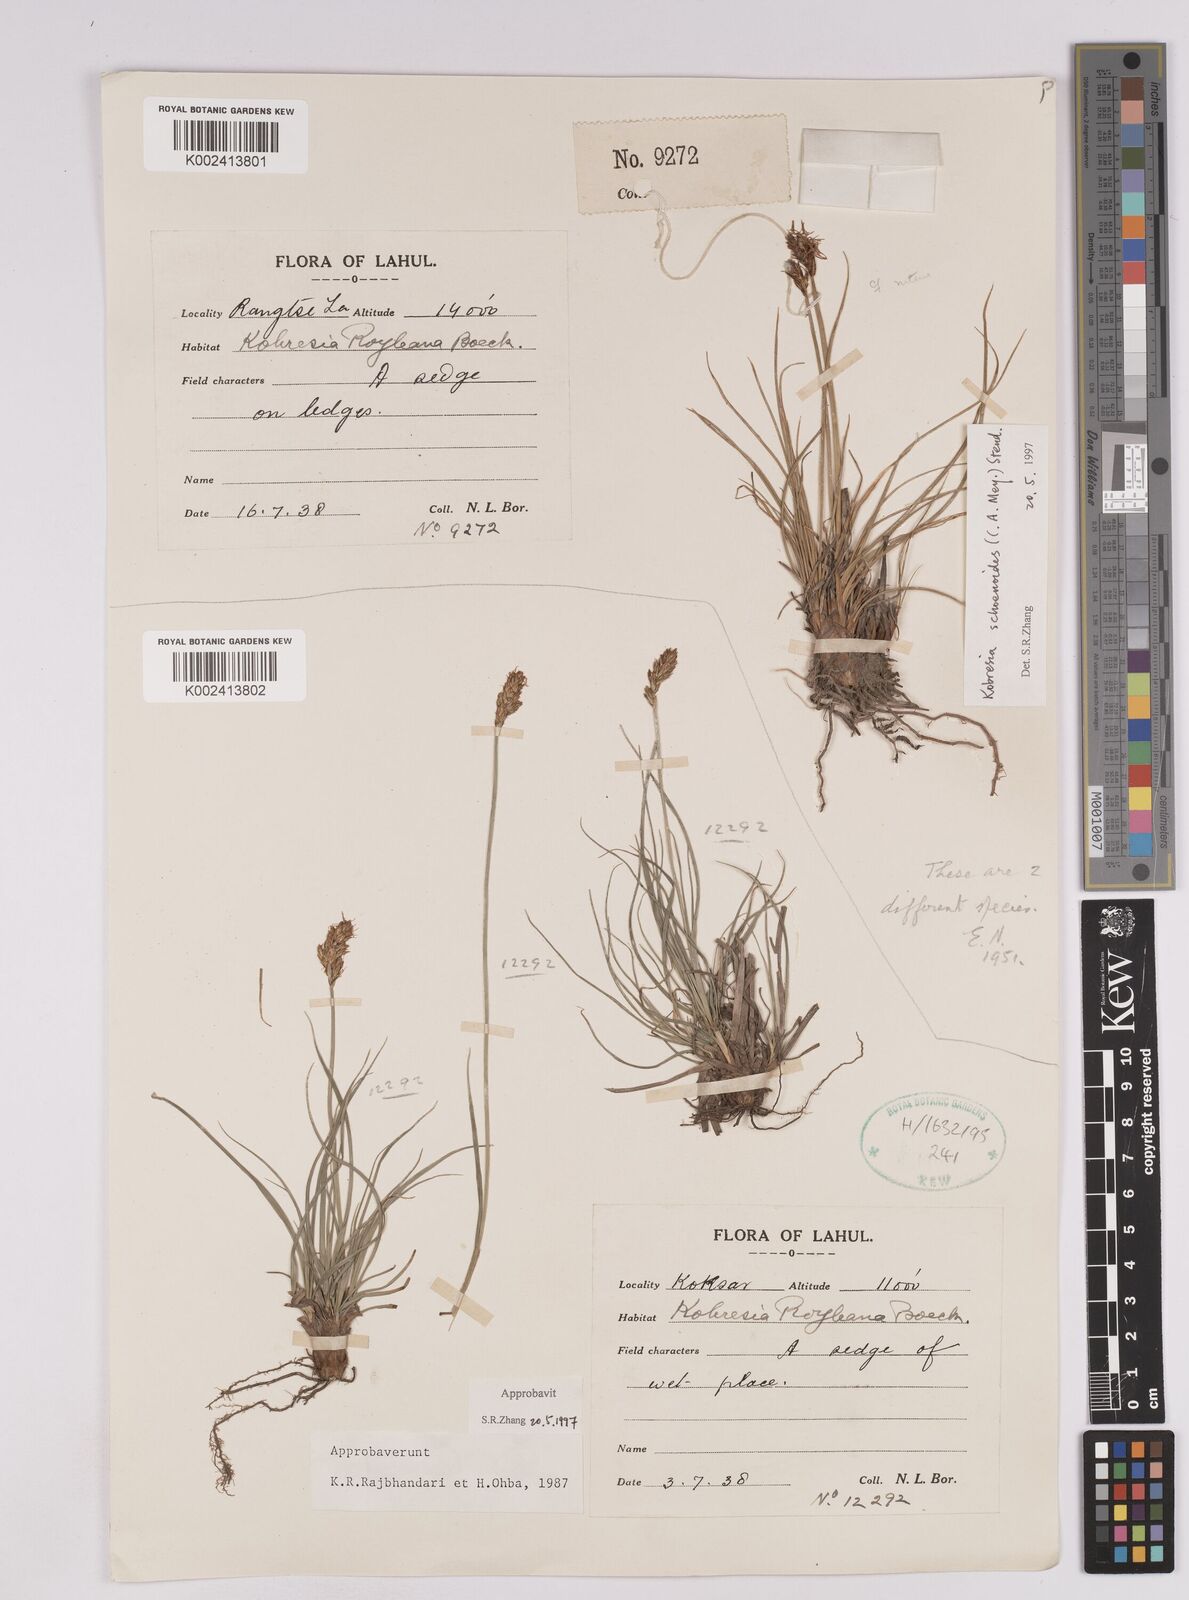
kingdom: Plantae
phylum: Tracheophyta
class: Liliopsida
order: Poales
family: Cyperaceae
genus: Carex
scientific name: Carex kokanica
